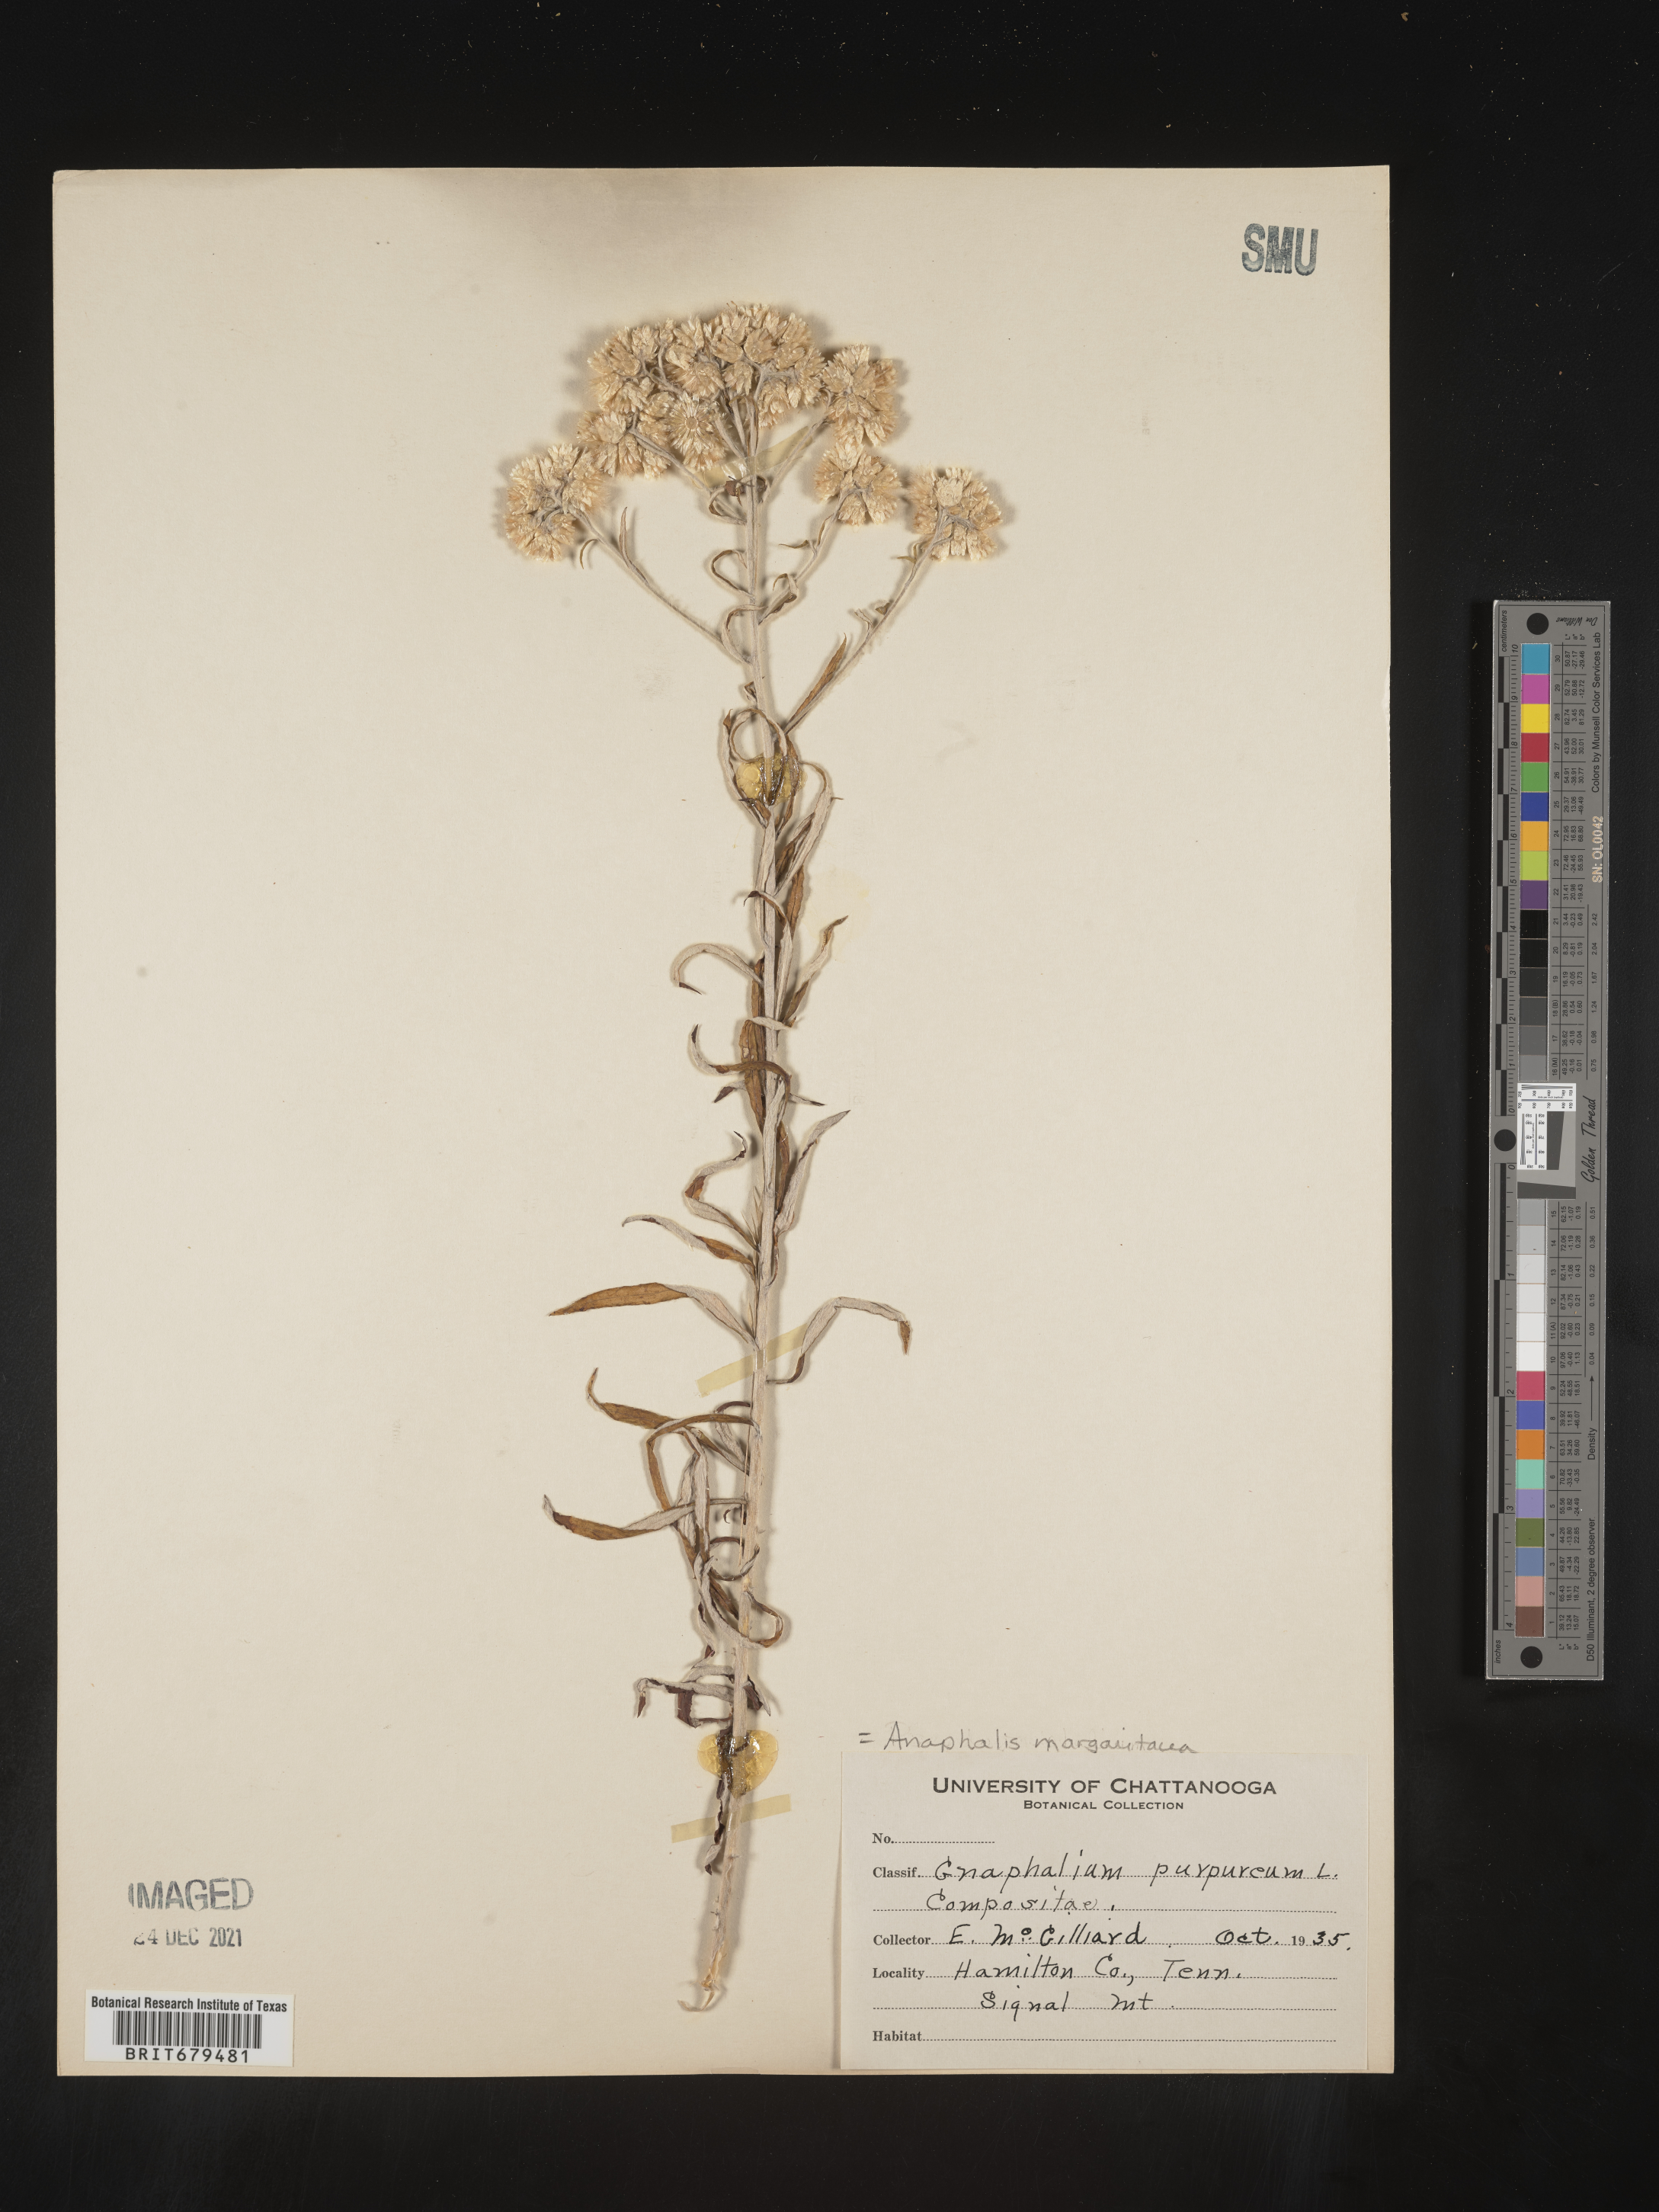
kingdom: Plantae
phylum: Tracheophyta
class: Magnoliopsida
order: Asterales
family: Asteraceae
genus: Anaphalis
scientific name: Anaphalis margaritacea
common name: Pearly everlasting
